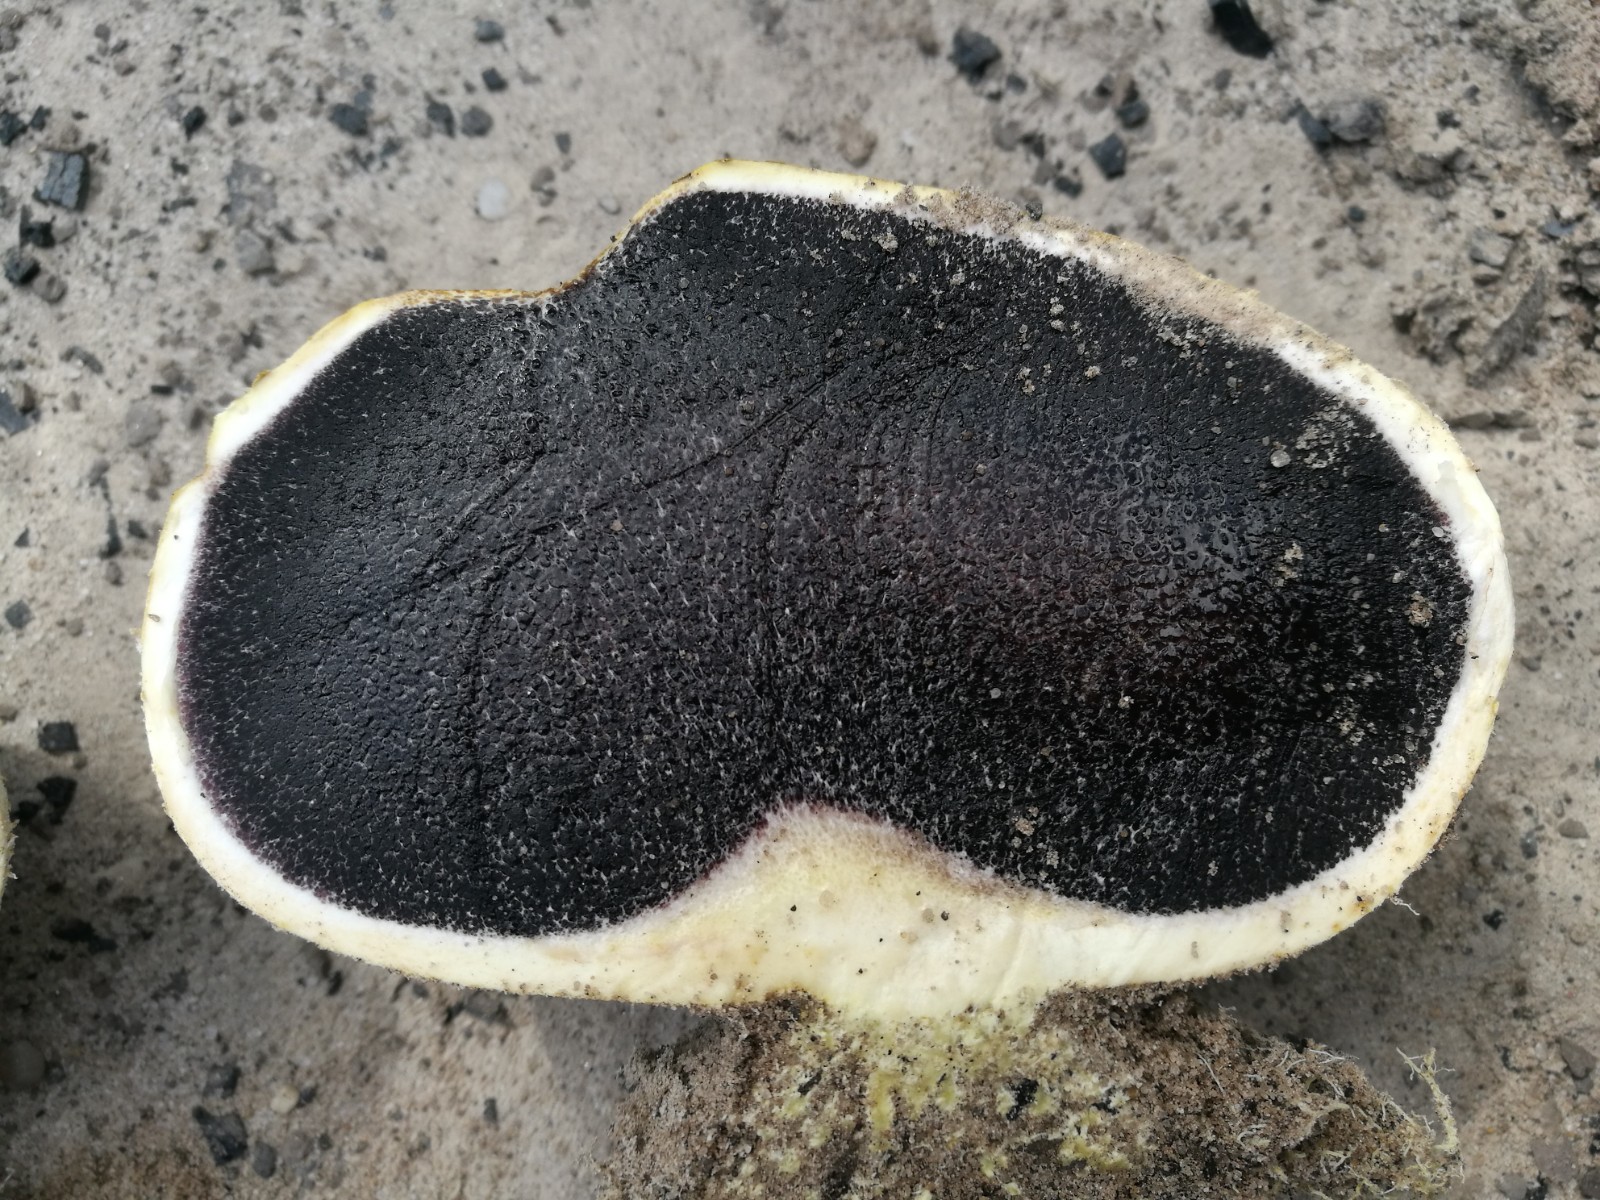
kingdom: Fungi
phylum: Basidiomycota
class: Agaricomycetes
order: Boletales
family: Sclerodermataceae
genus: Scleroderma
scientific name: Scleroderma
